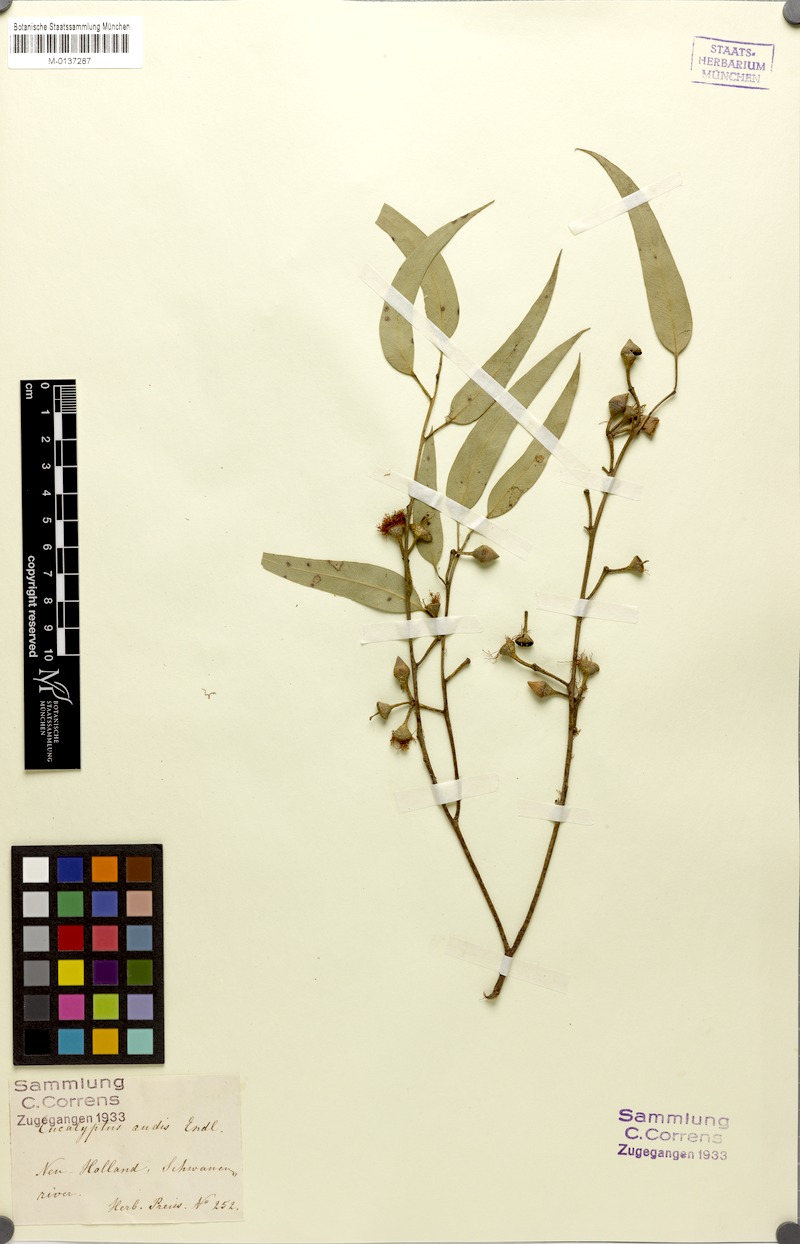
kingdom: Plantae
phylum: Tracheophyta
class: Magnoliopsida
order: Myrtales
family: Myrtaceae
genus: Eucalyptus
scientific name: Eucalyptus rudis
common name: Flooded gum
